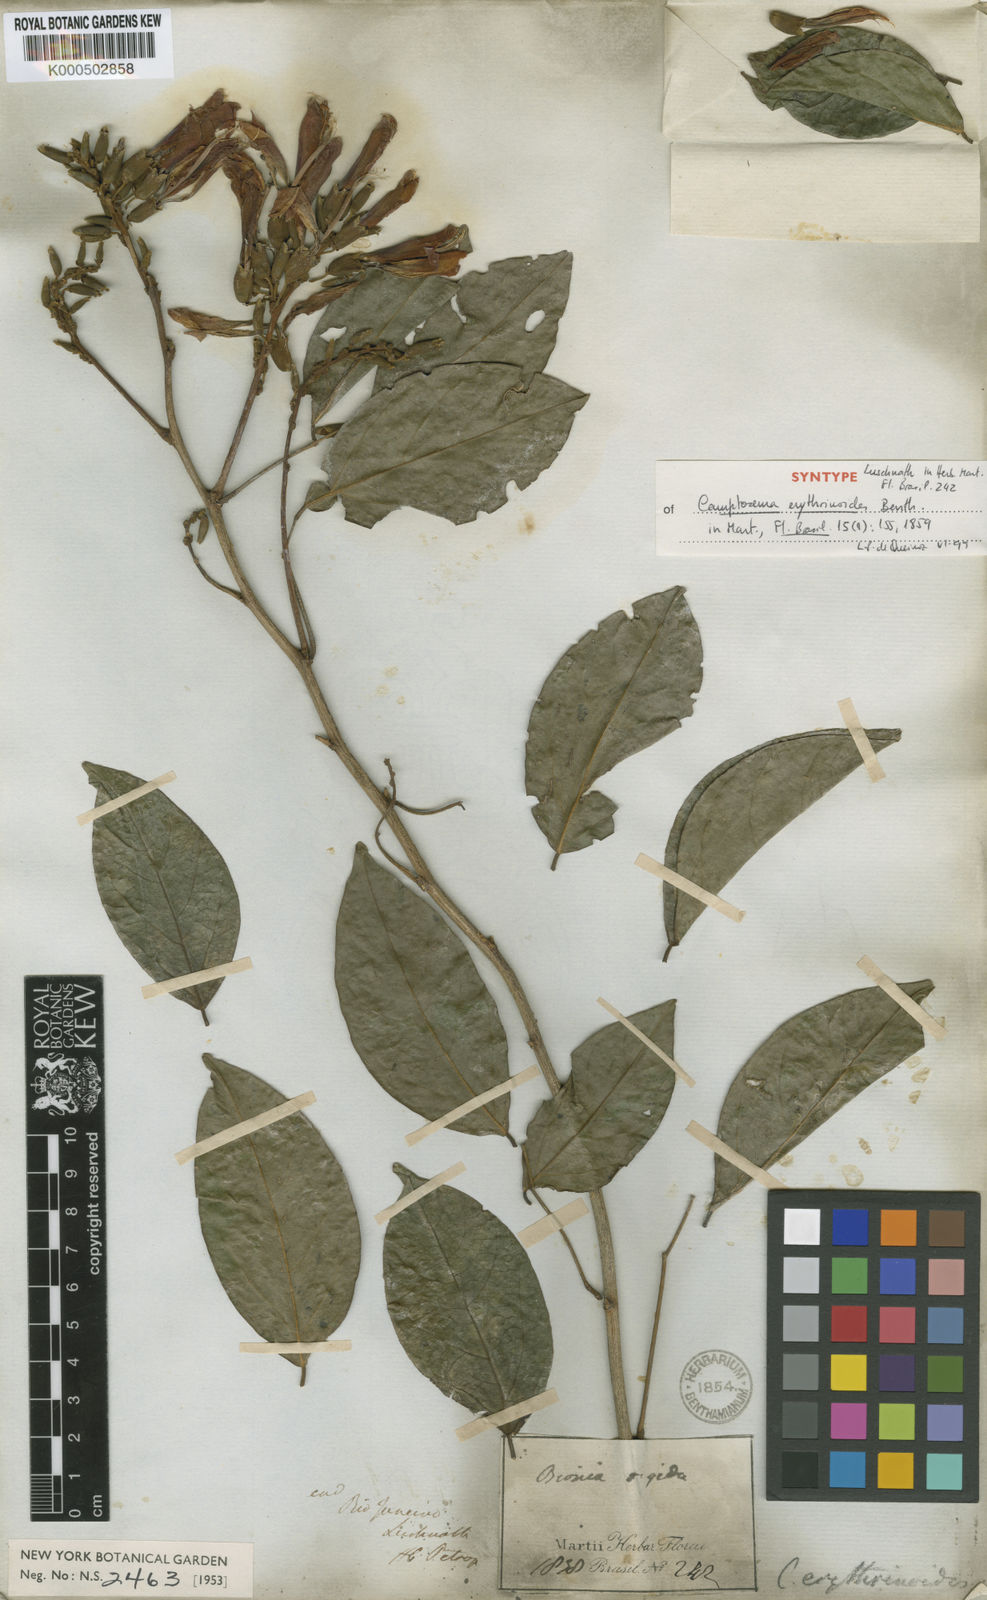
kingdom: Plantae
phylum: Tracheophyta
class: Magnoliopsida
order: Fabales
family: Fabaceae
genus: Cratylia
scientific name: Cratylia isopetala
